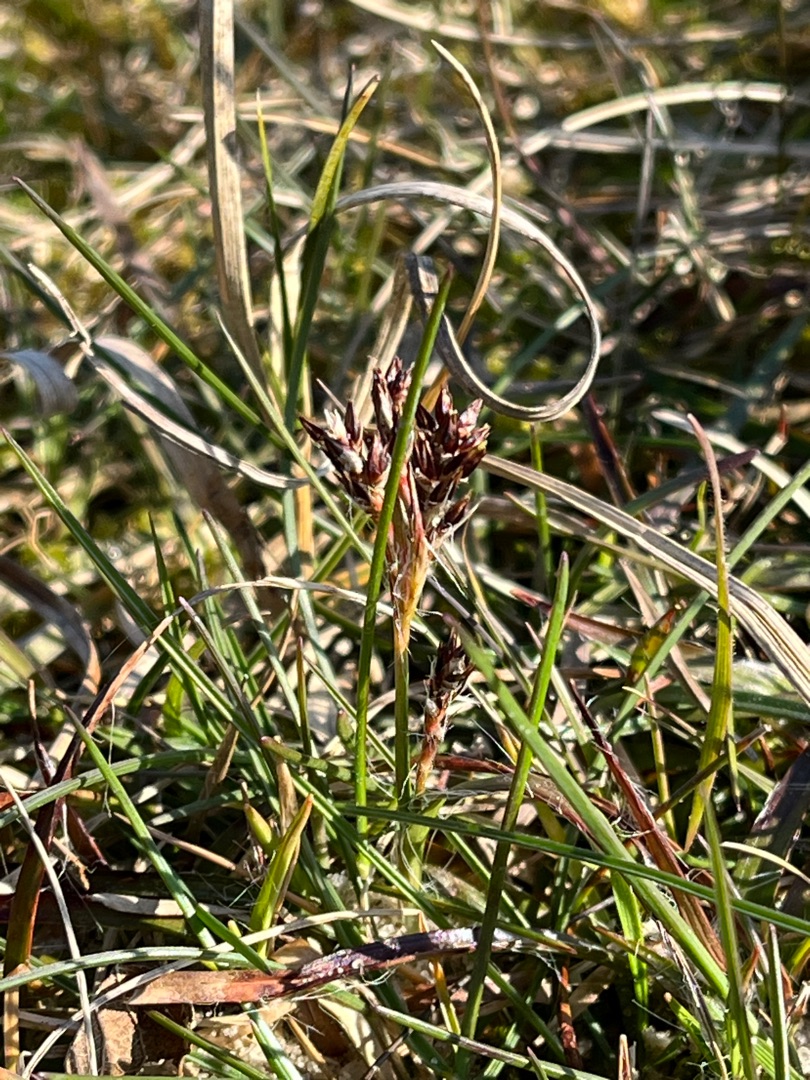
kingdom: Plantae
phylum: Tracheophyta
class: Liliopsida
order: Poales
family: Juncaceae
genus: Luzula
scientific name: Luzula campestris
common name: Mark-frytle
